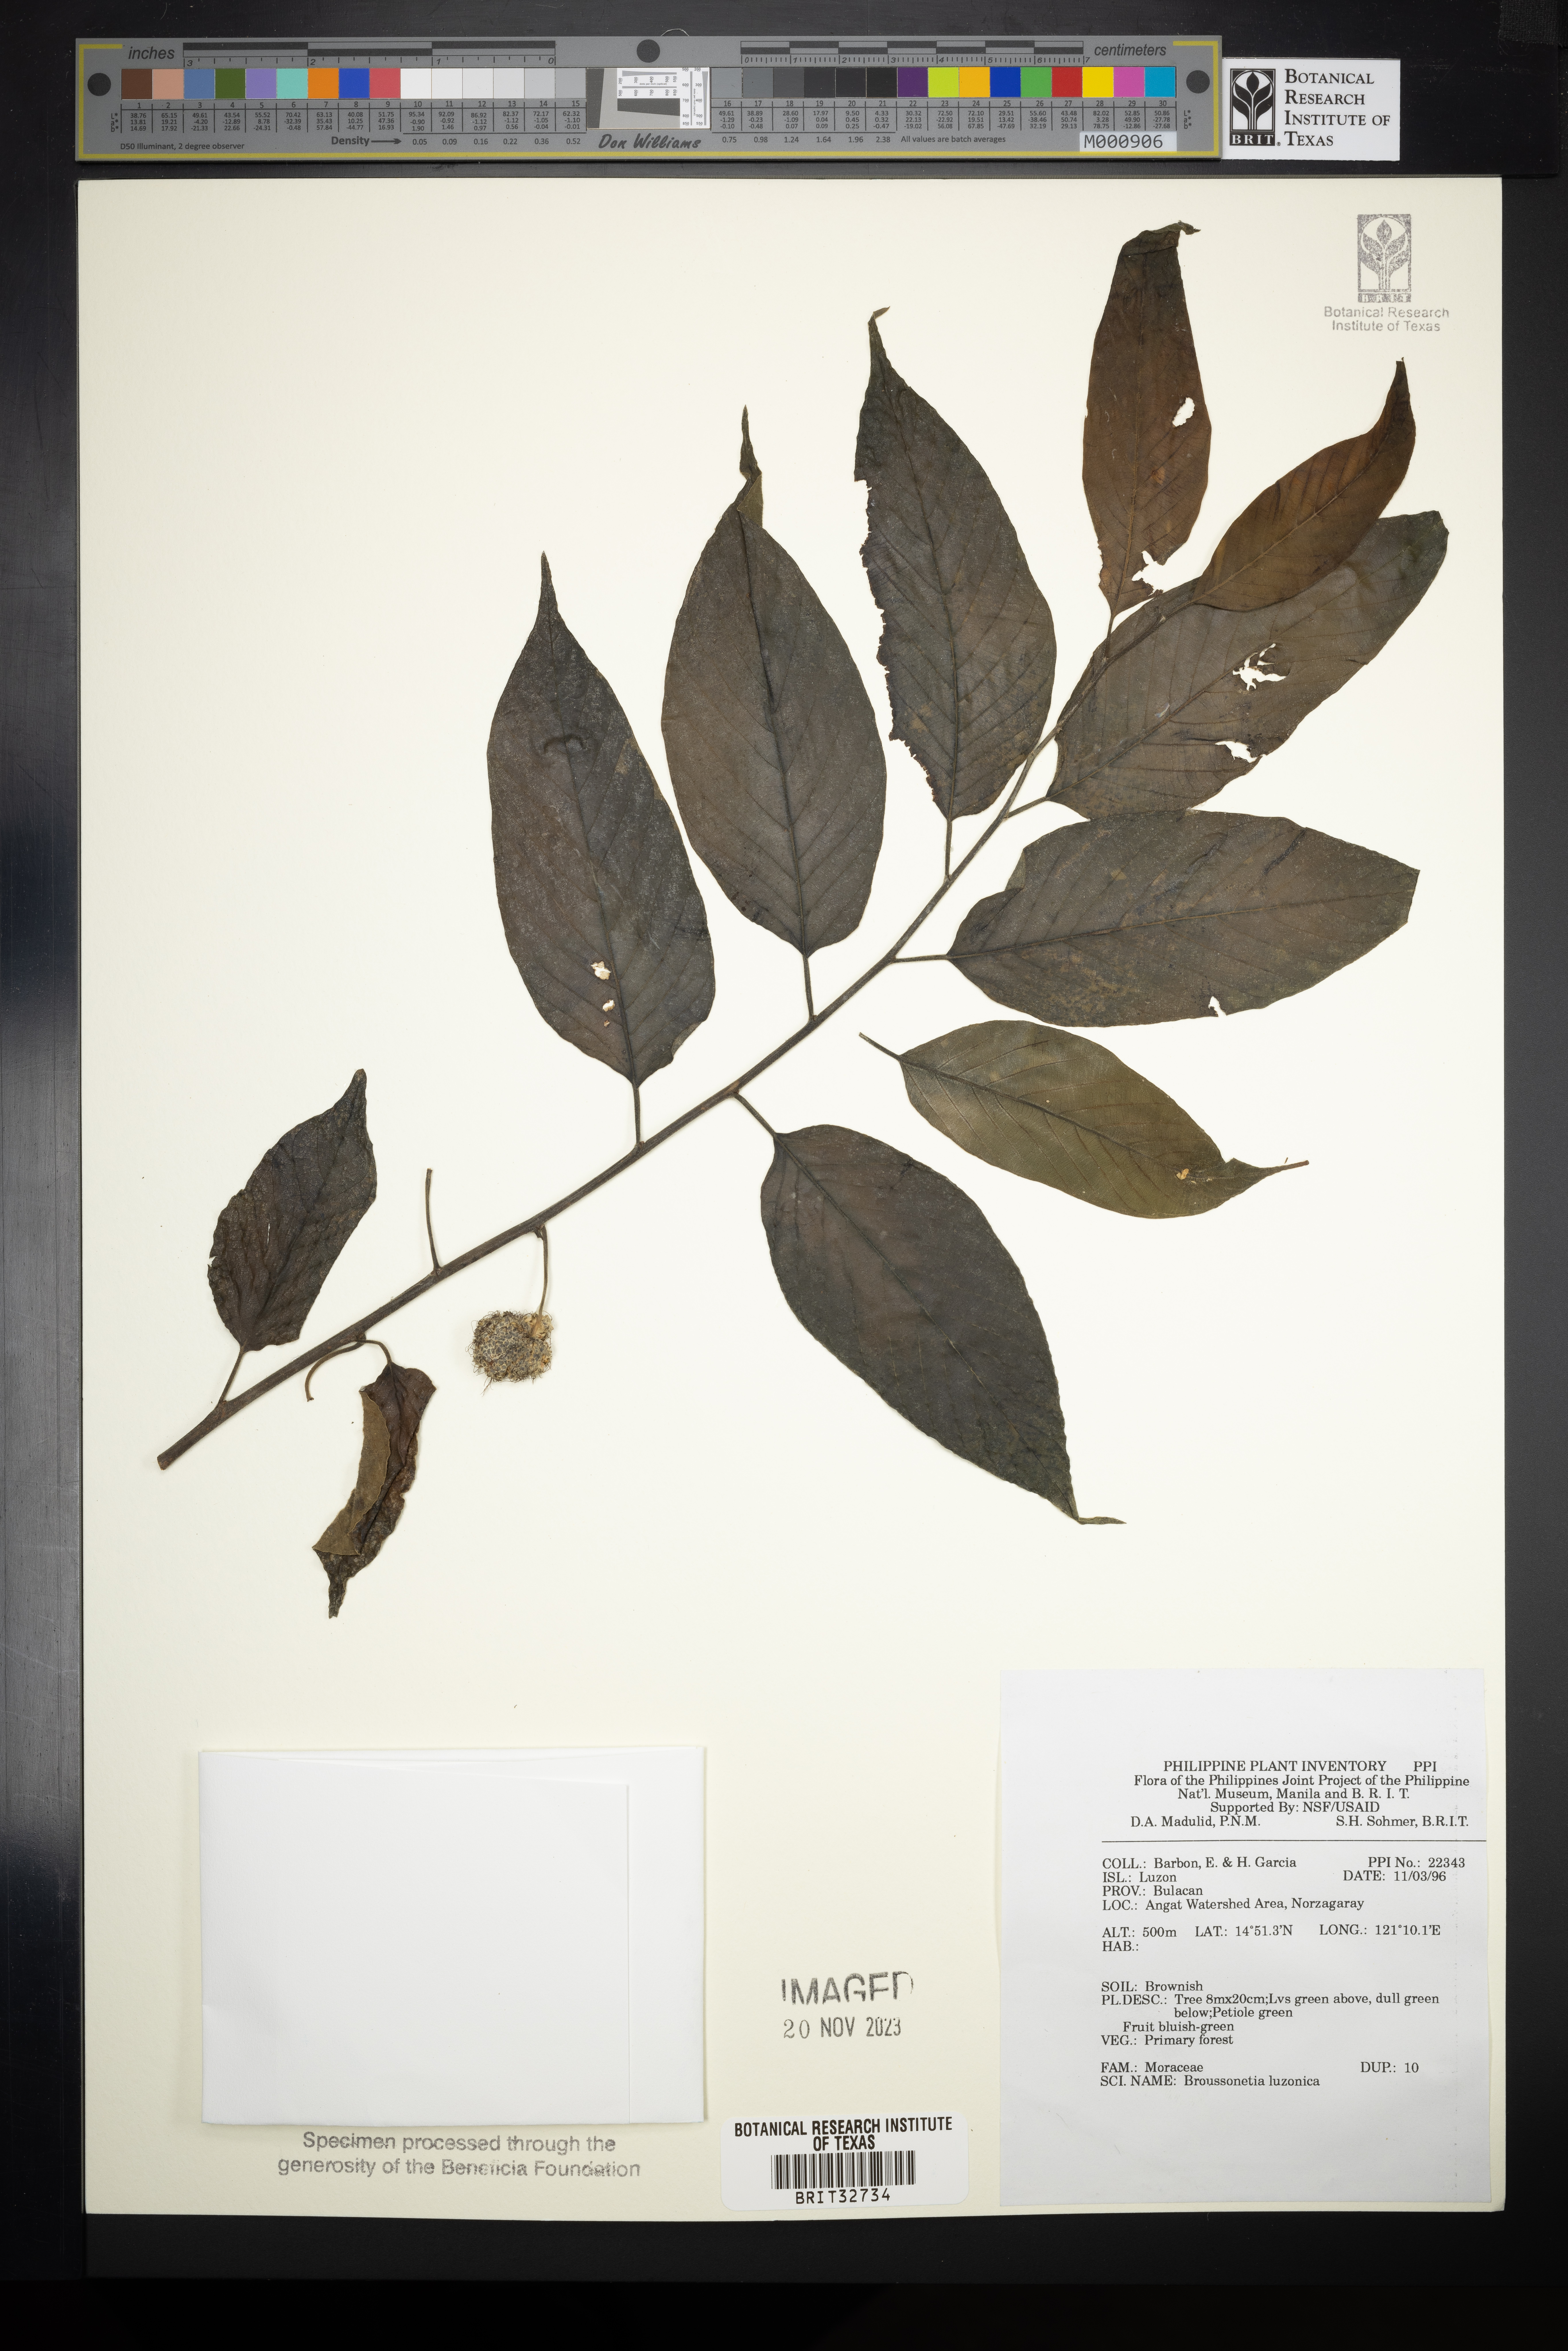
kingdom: Plantae
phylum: Tracheophyta
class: Magnoliopsida
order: Rosales
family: Moraceae
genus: Allaeanthus
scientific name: Allaeanthus luzonicus
